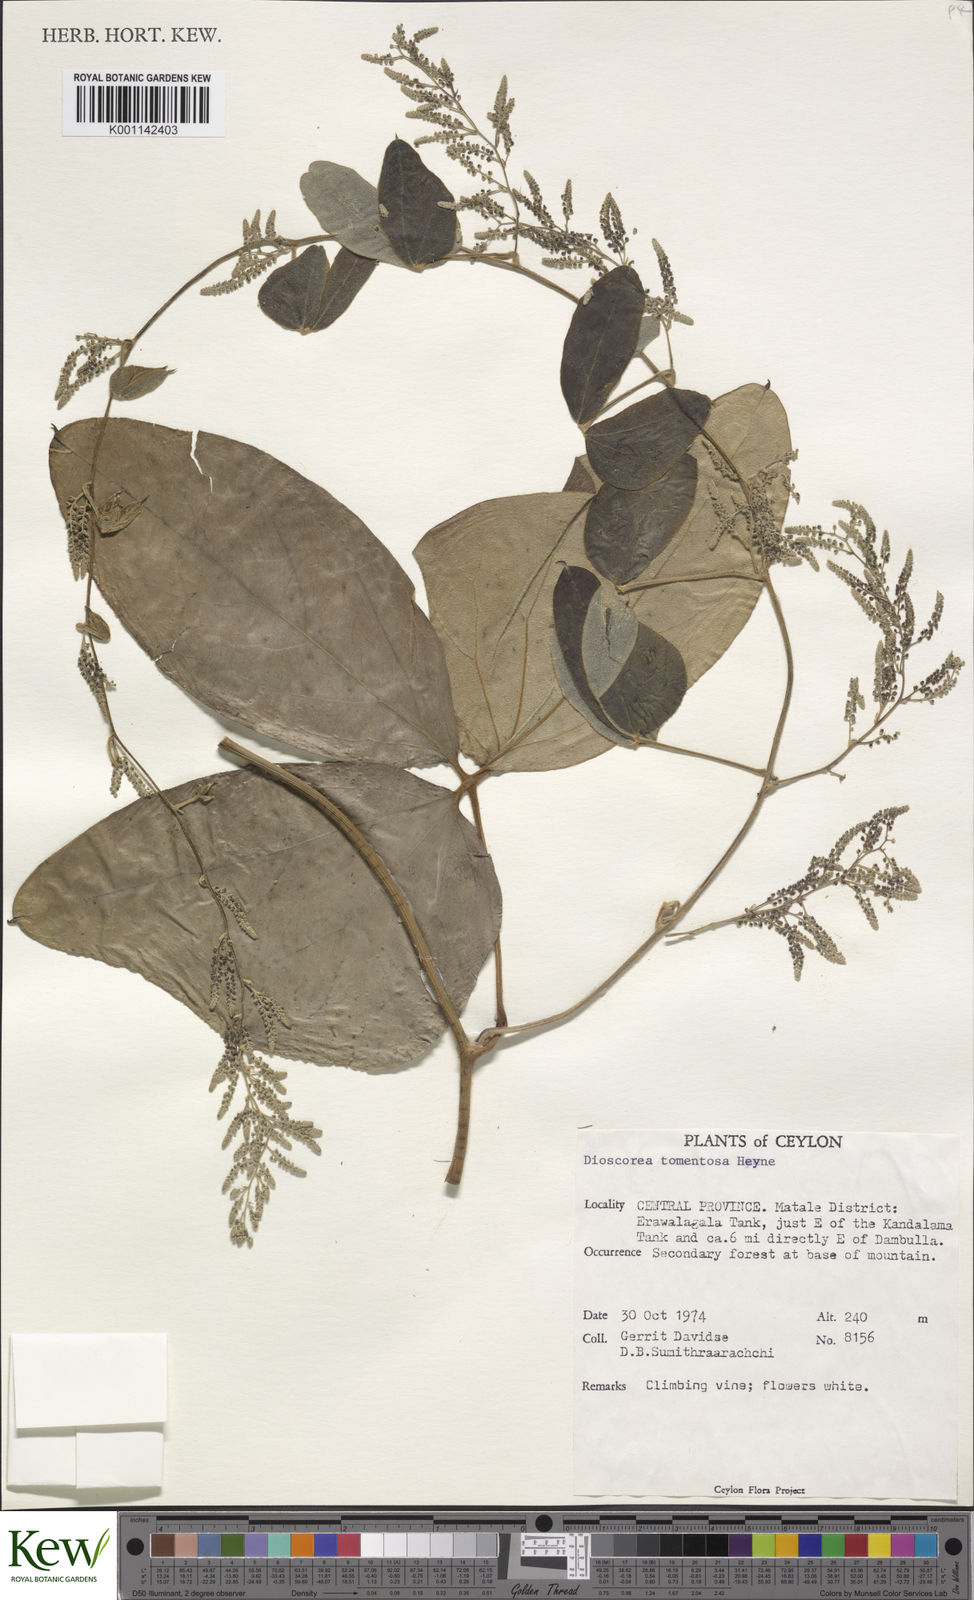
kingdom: Plantae
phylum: Tracheophyta
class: Liliopsida
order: Dioscoreales
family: Dioscoreaceae
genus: Dioscorea
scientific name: Dioscorea
